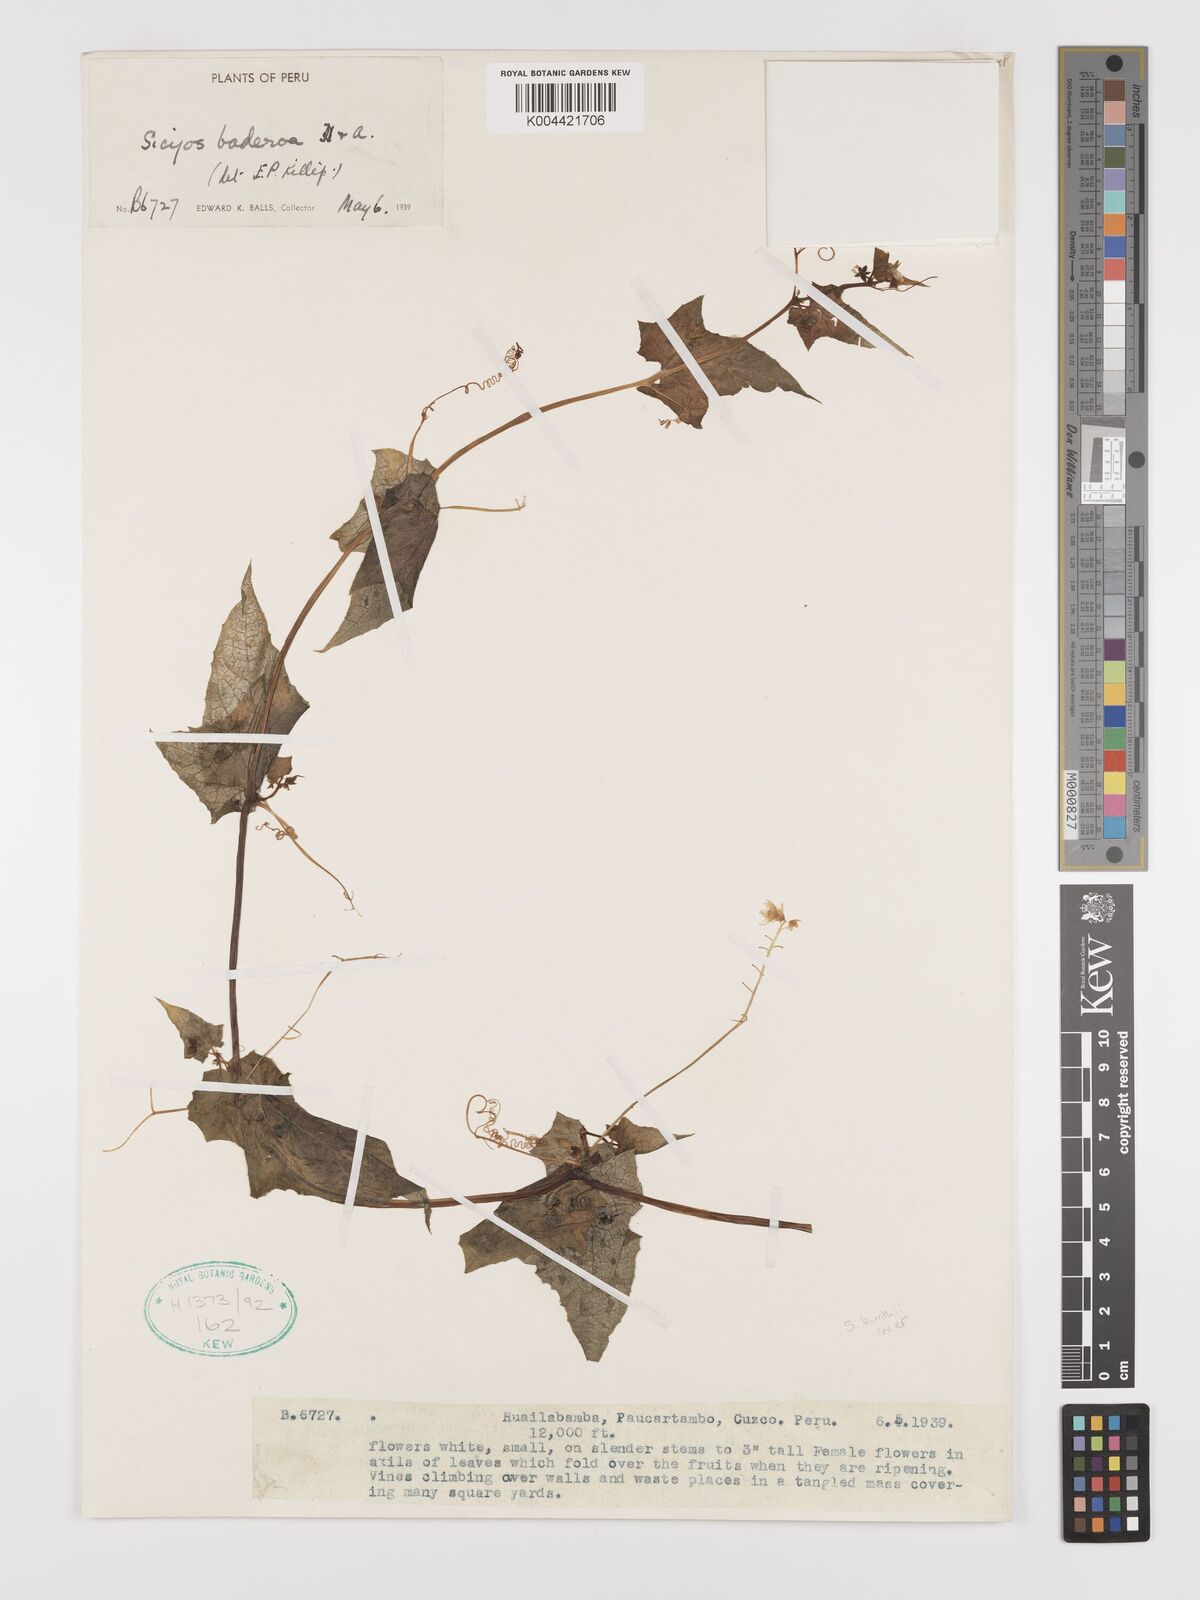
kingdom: Plantae
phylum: Tracheophyta
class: Magnoliopsida
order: Cucurbitales
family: Cucurbitaceae
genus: Sicyos
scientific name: Sicyos kunthii
